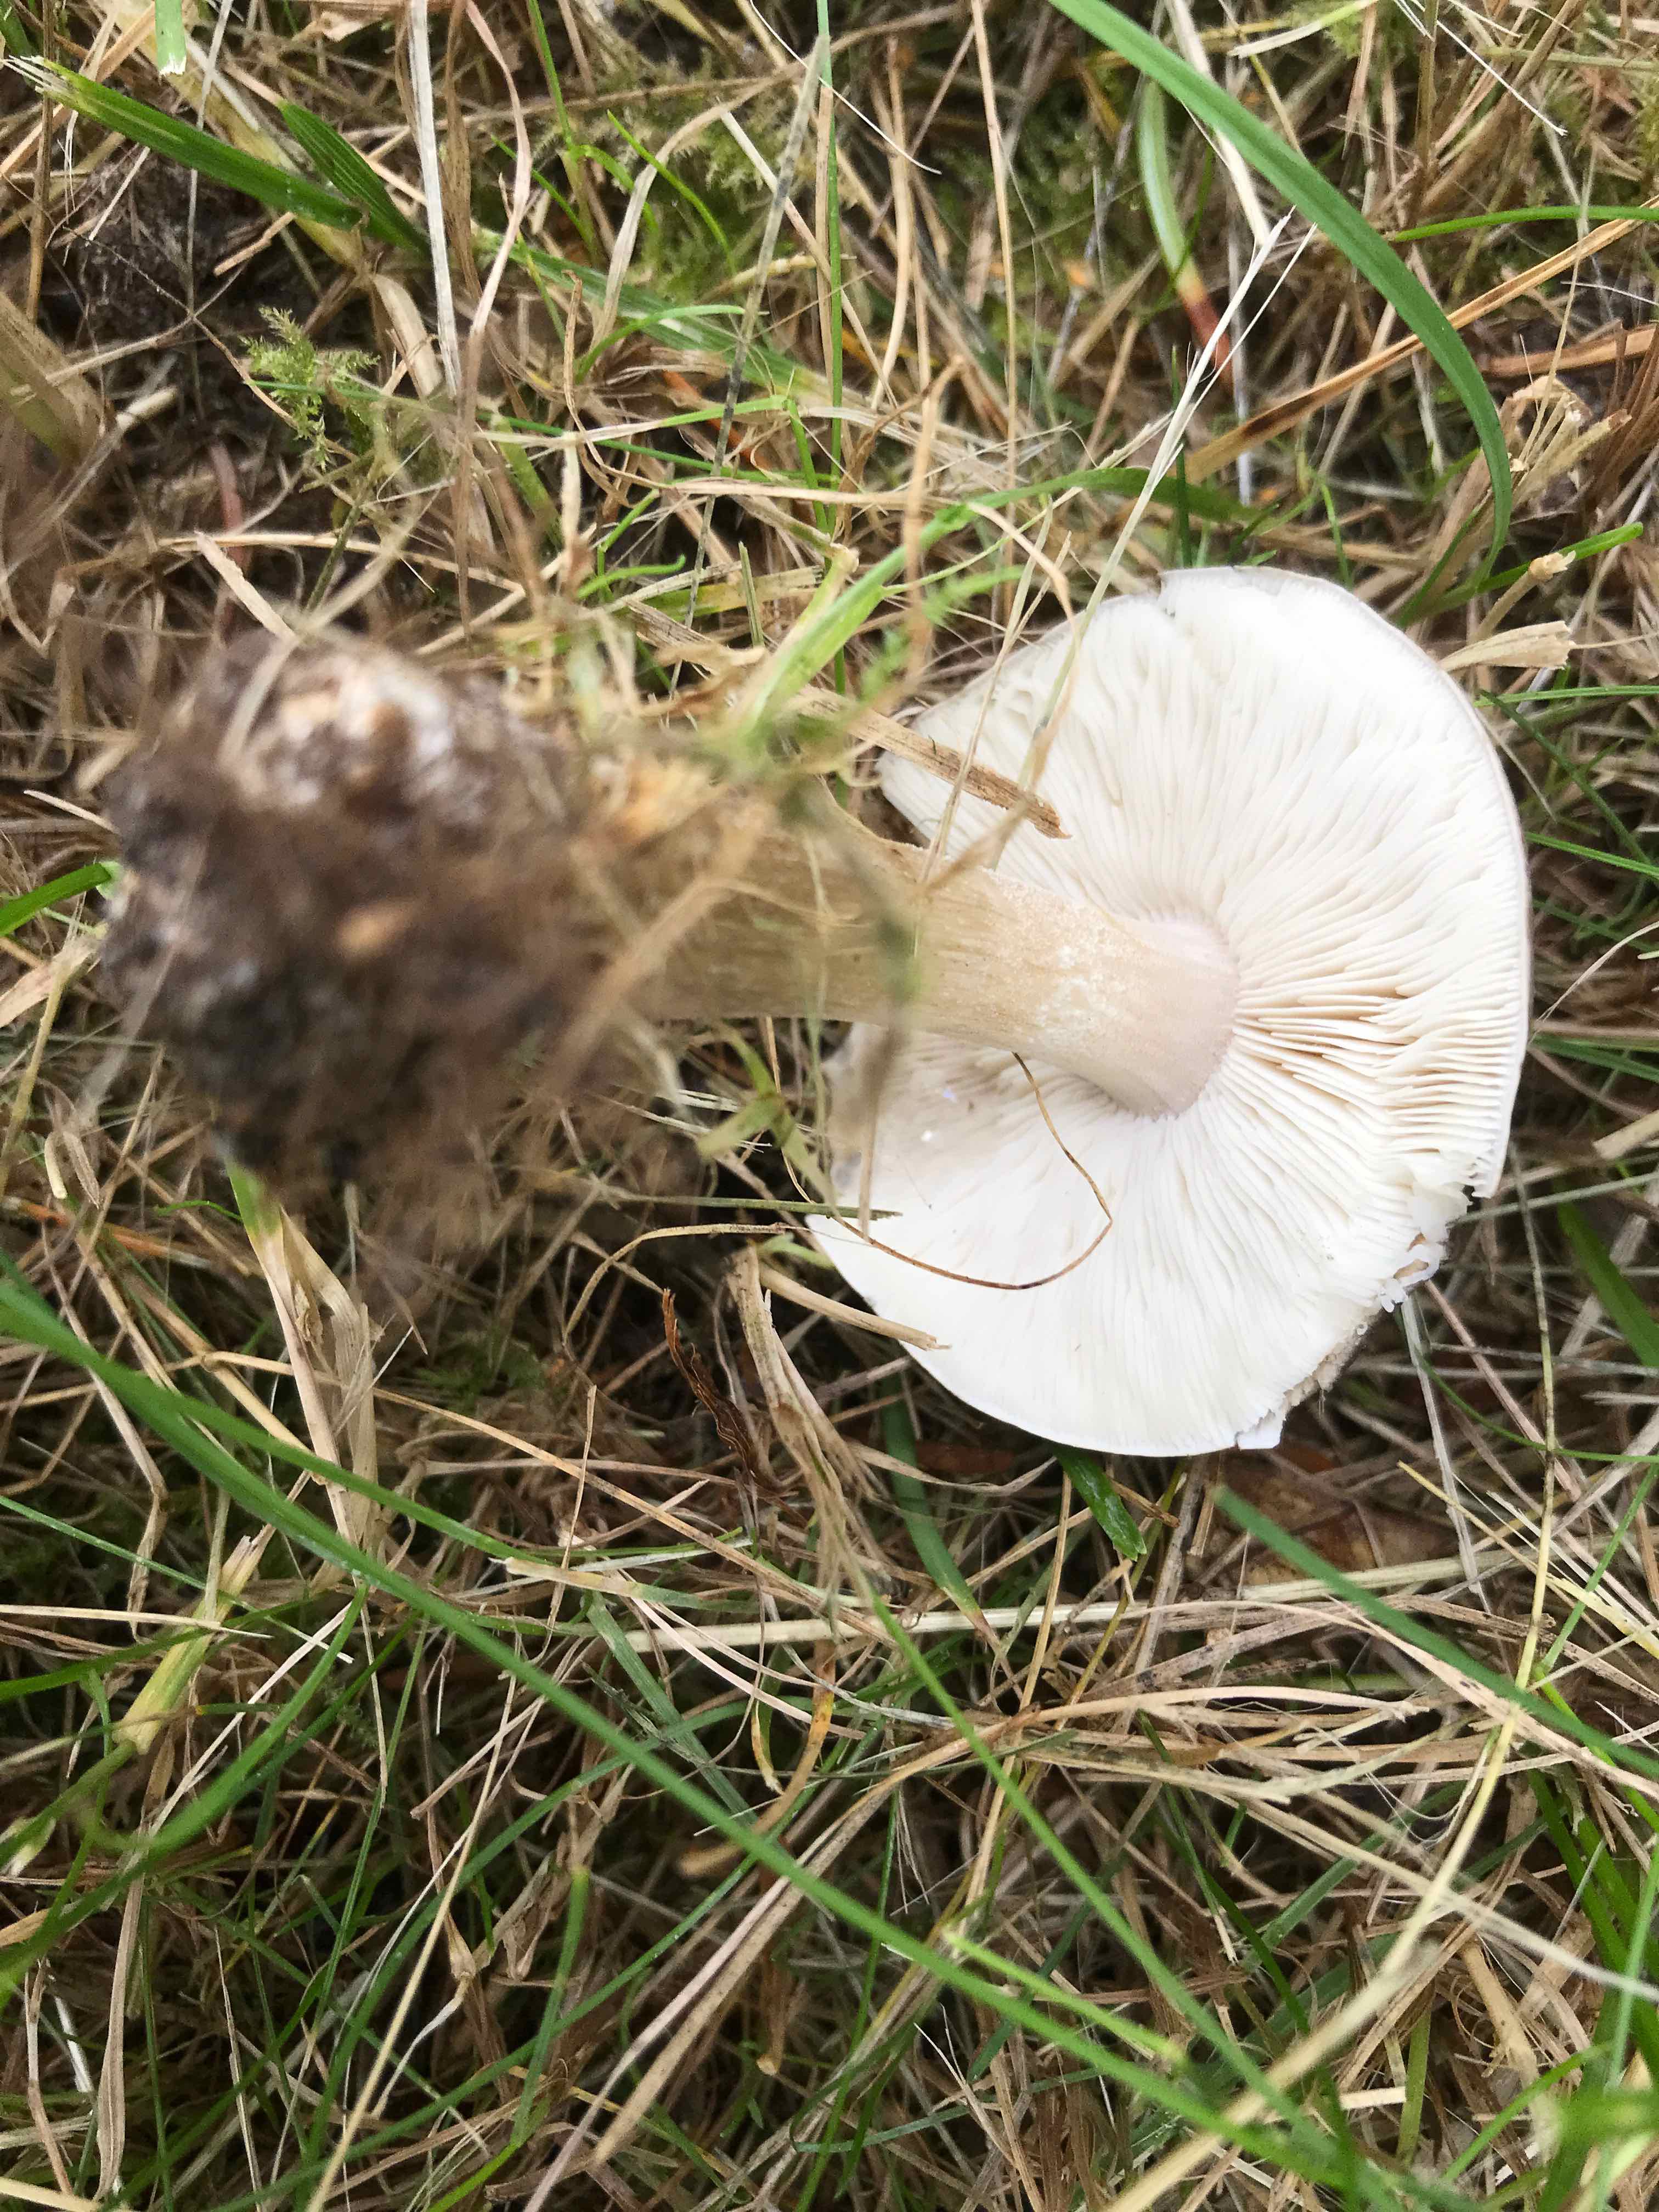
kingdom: Fungi
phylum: Basidiomycota
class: Agaricomycetes
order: Agaricales
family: Tricholomataceae
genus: Melanoleuca
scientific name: Melanoleuca
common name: munkehat
